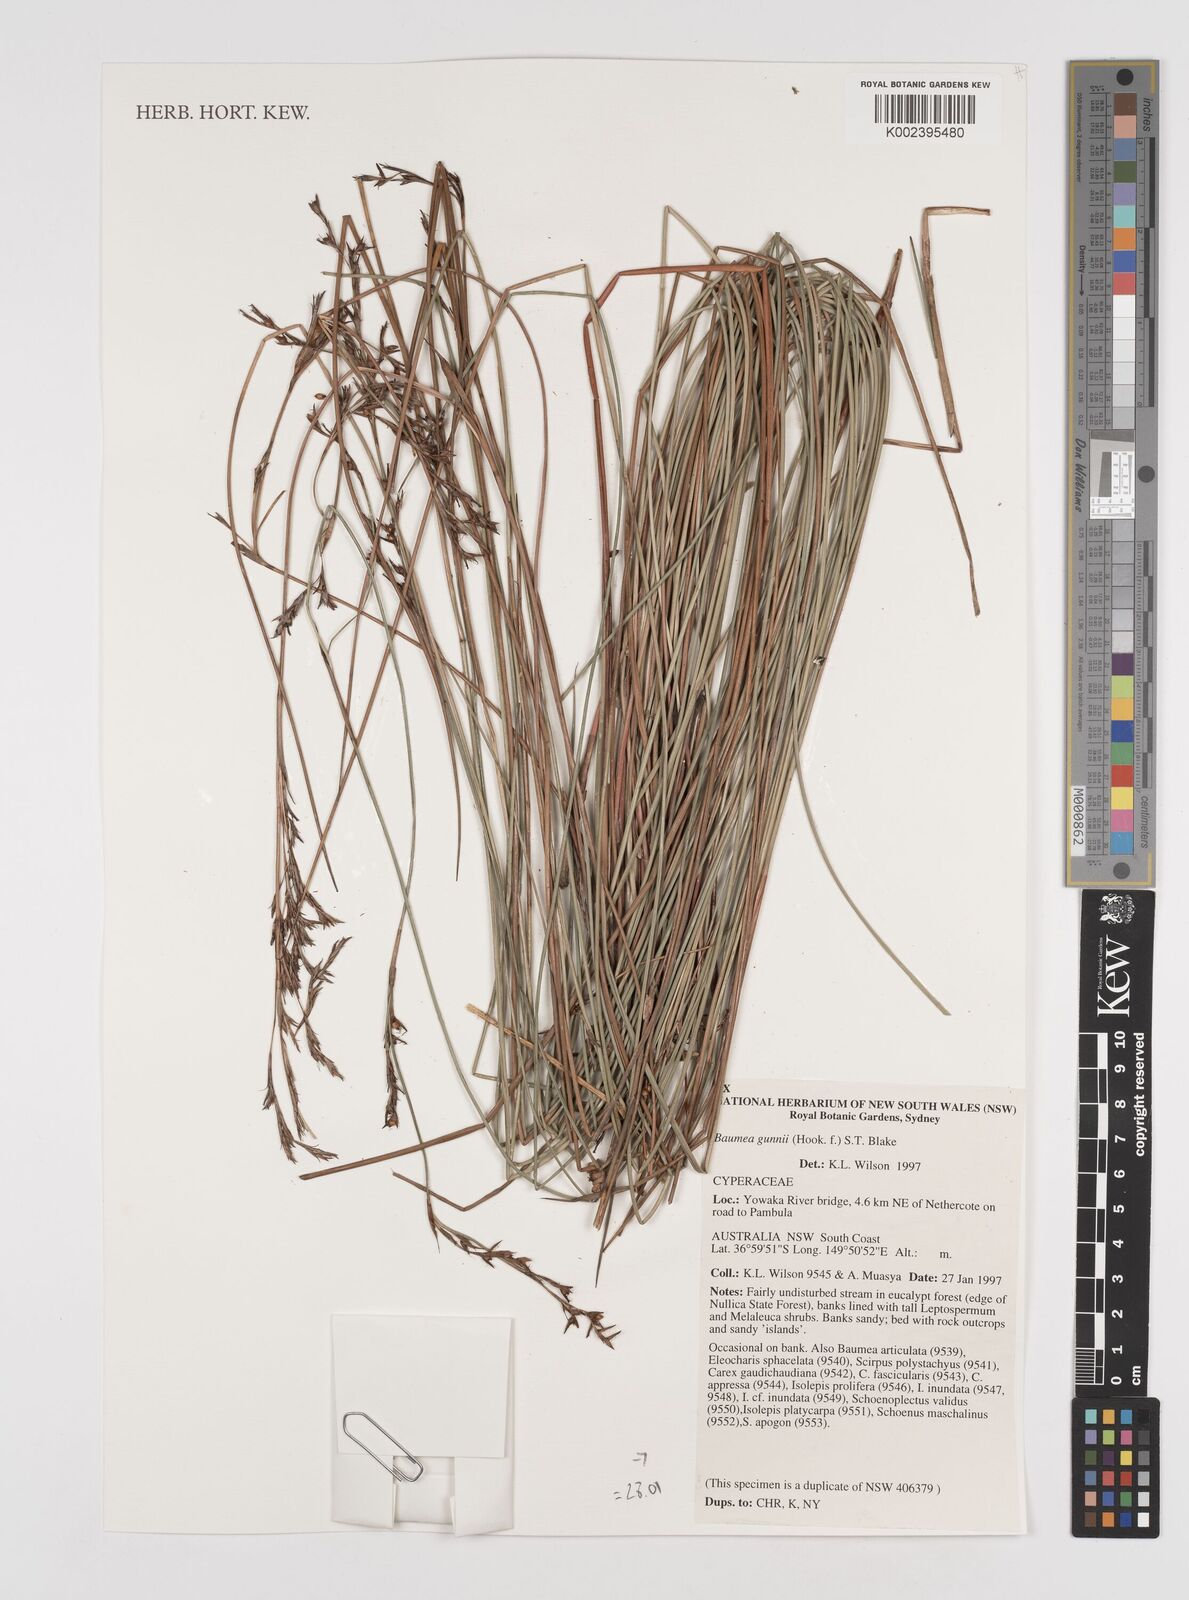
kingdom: Plantae
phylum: Tracheophyta
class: Liliopsida
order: Poales
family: Cyperaceae
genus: Machaerina
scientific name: Machaerina gunnii
